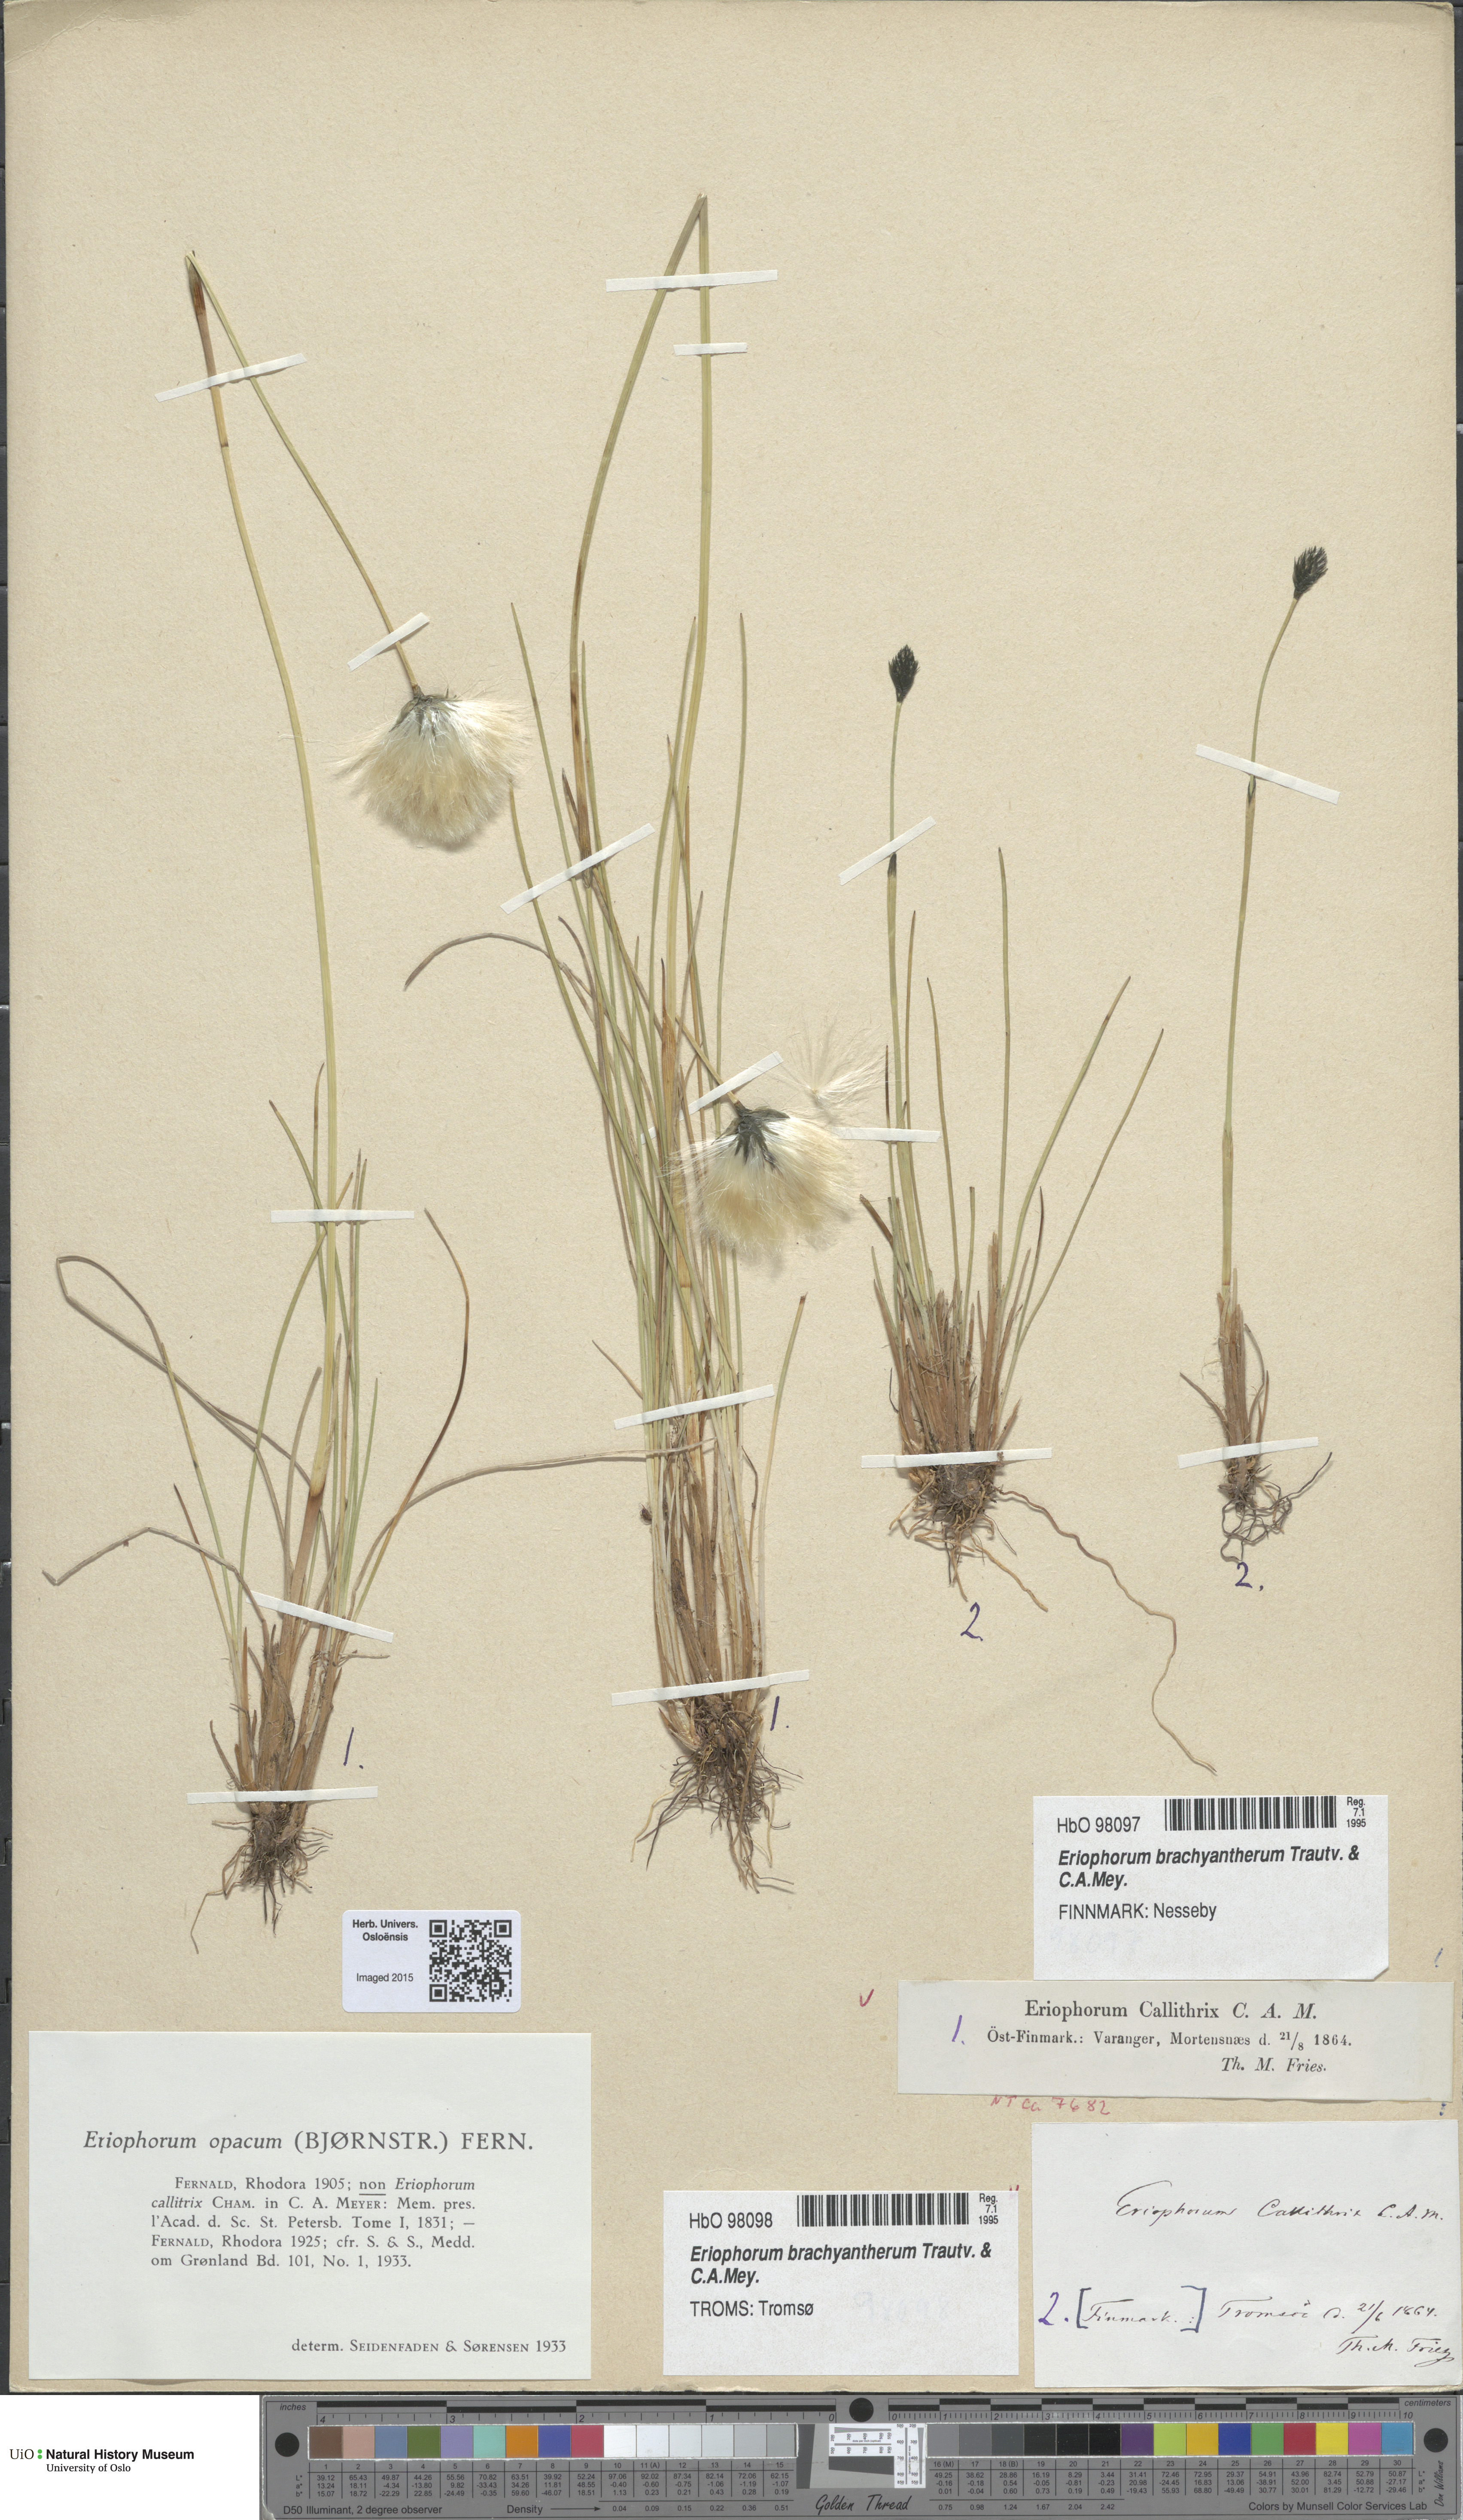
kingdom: Plantae
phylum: Tracheophyta
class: Liliopsida
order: Poales
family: Cyperaceae
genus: Eriophorum
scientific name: Eriophorum brachyantherum
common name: Closed-sheathed cottongrass
